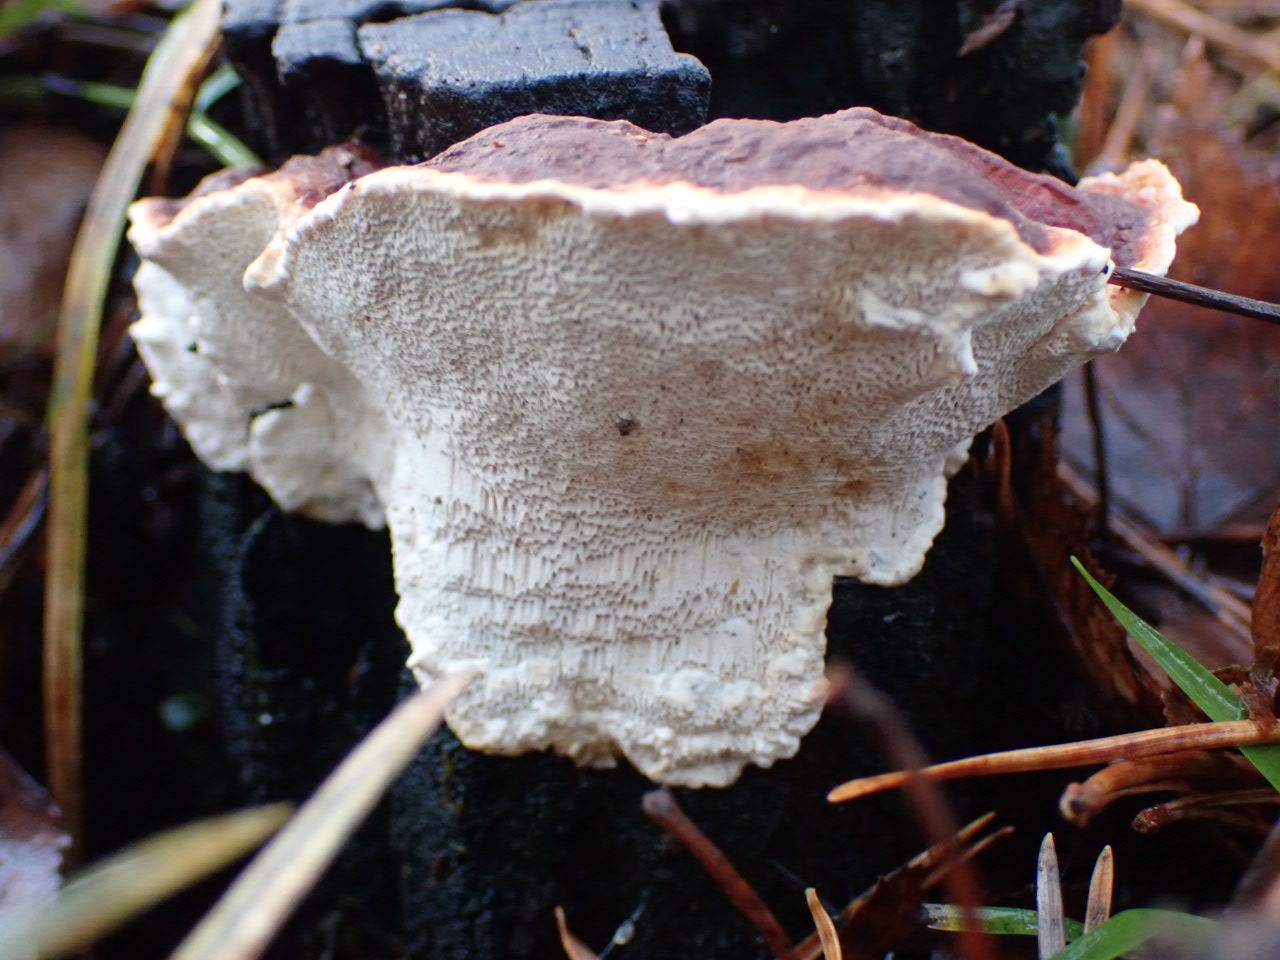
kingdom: Fungi
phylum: Basidiomycota
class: Agaricomycetes
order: Russulales
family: Bondarzewiaceae
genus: Heterobasidion
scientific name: Heterobasidion annosum
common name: almindelig rodfordærver
